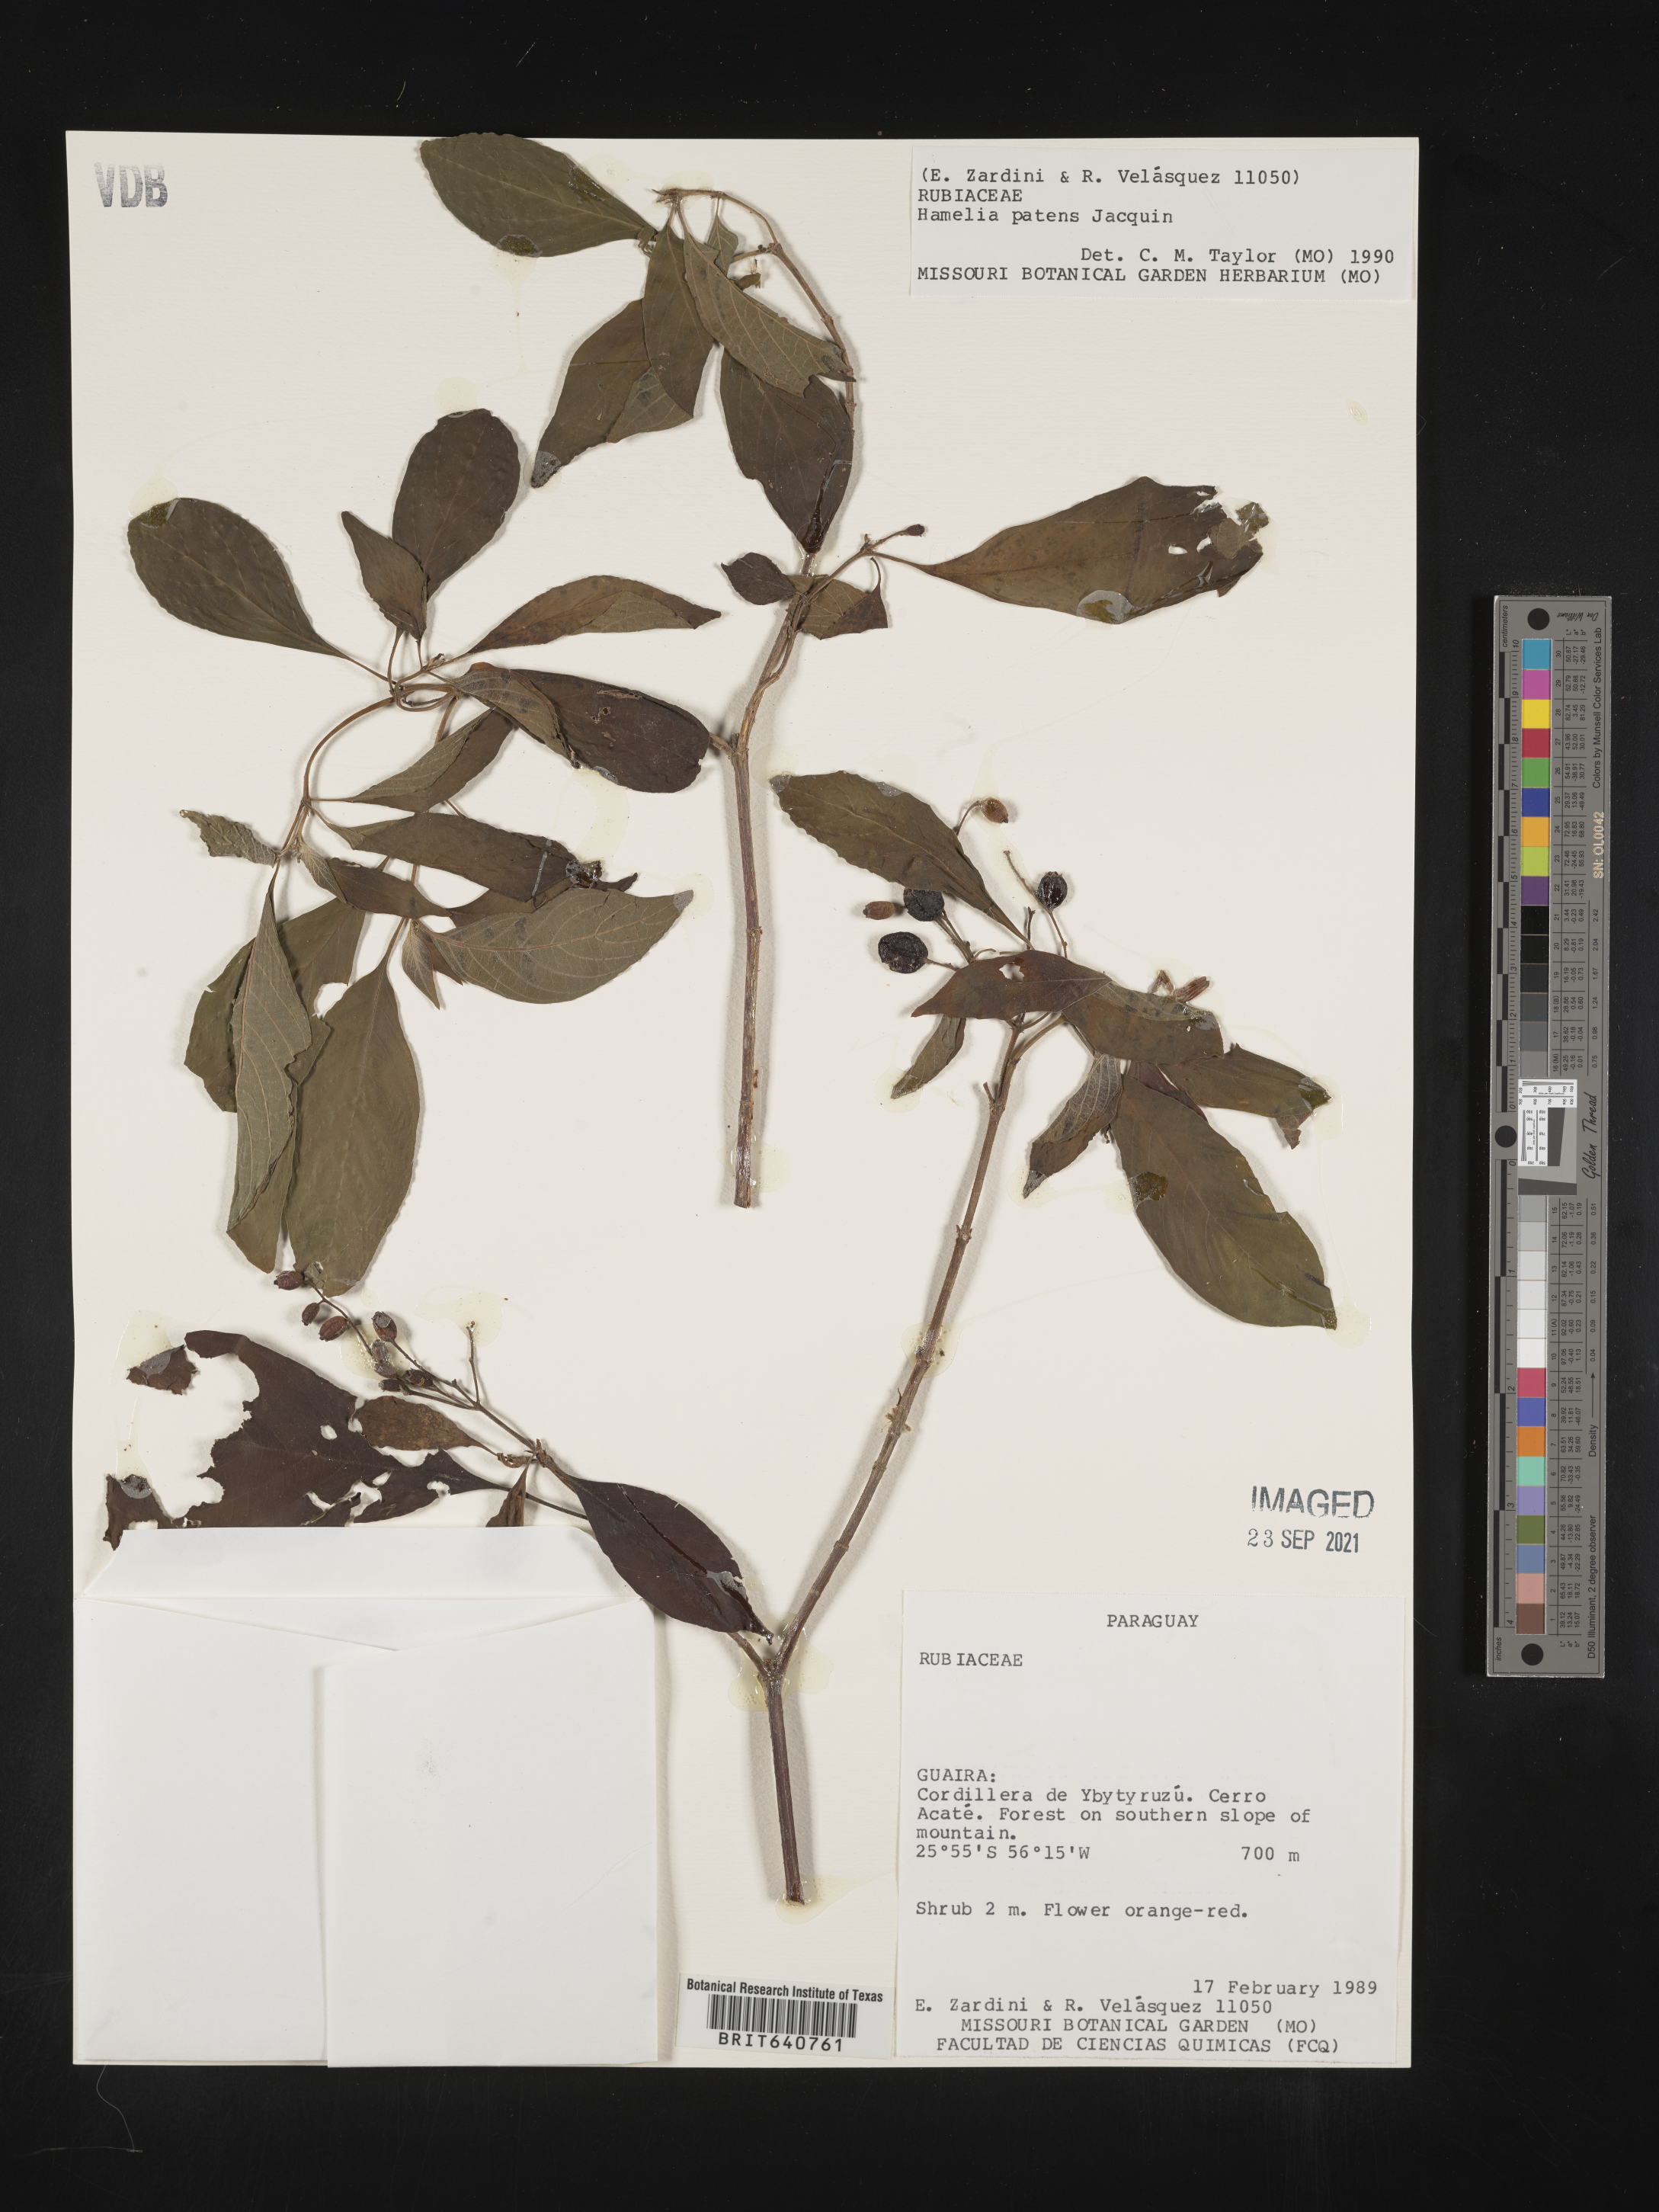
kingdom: Plantae
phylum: Tracheophyta
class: Magnoliopsida
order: Gentianales
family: Rubiaceae
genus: Hamelia
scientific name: Hamelia
